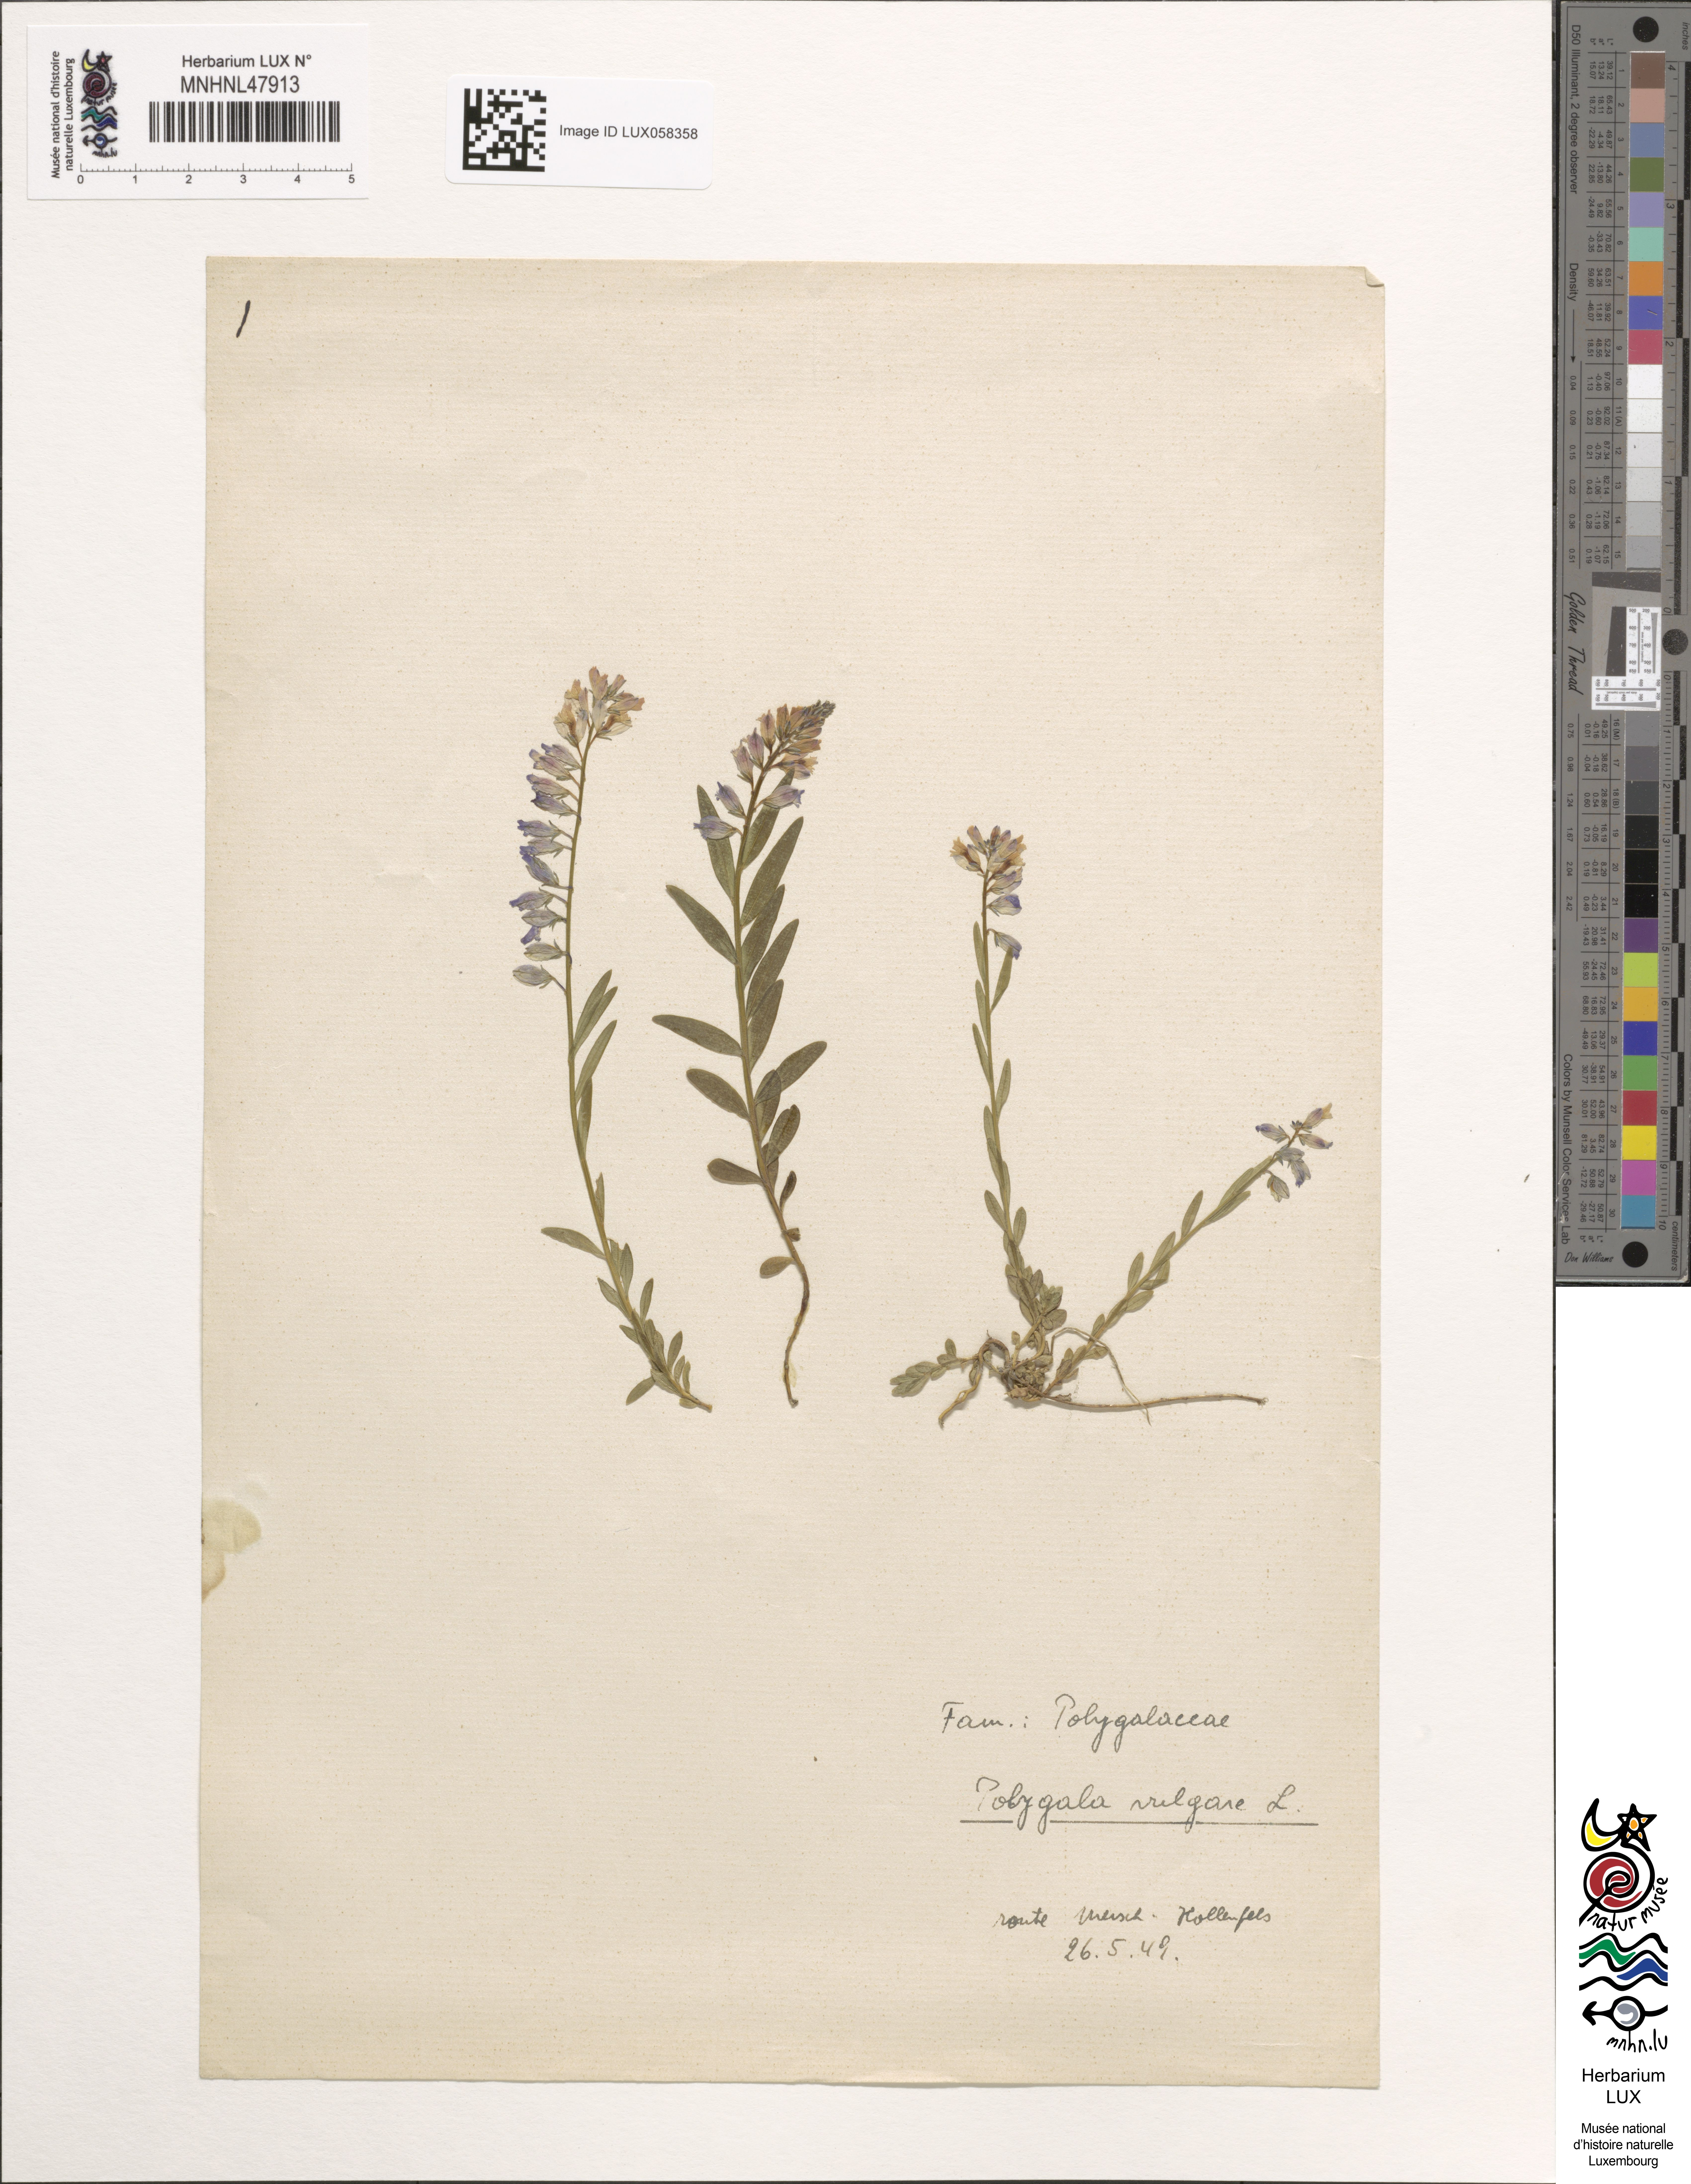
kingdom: Plantae
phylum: Tracheophyta
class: Magnoliopsida
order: Fabales
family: Polygalaceae
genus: Polygala
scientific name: Polygala vulgaris
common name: Common milkwort
